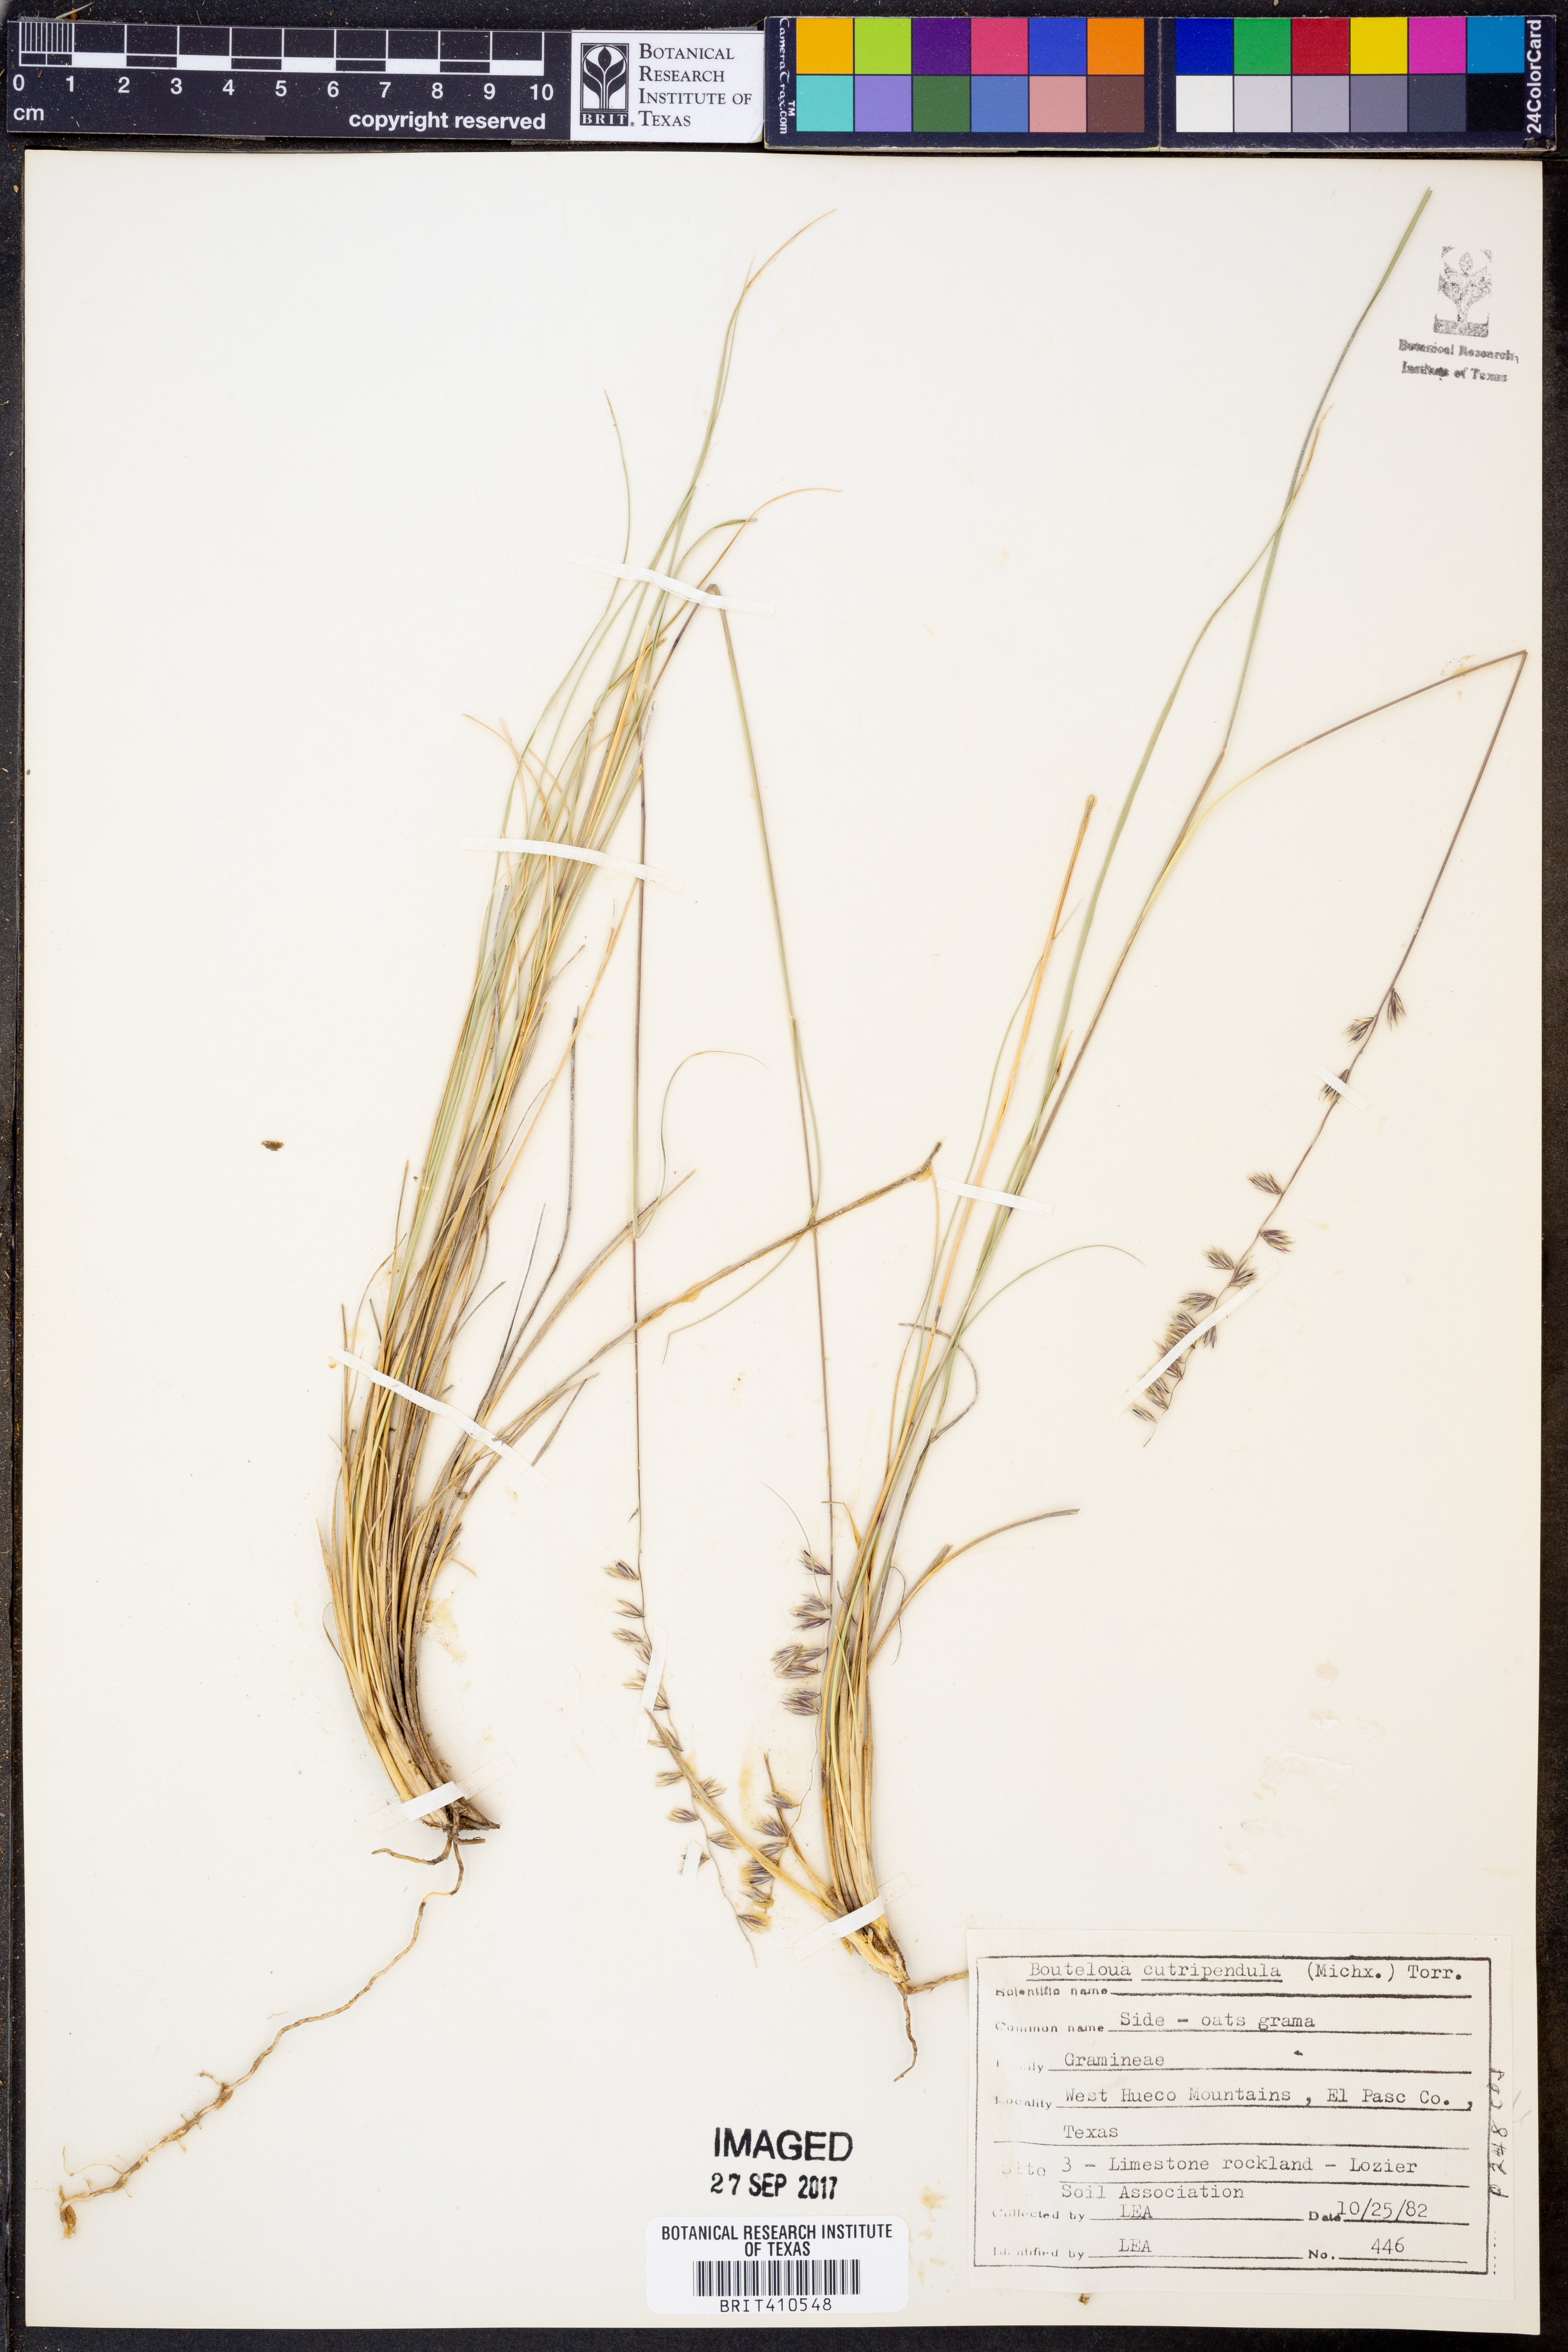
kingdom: Plantae
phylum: Tracheophyta
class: Liliopsida
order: Poales
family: Poaceae
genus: Bouteloua
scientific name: Bouteloua curtipendula
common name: Side-oats grama
